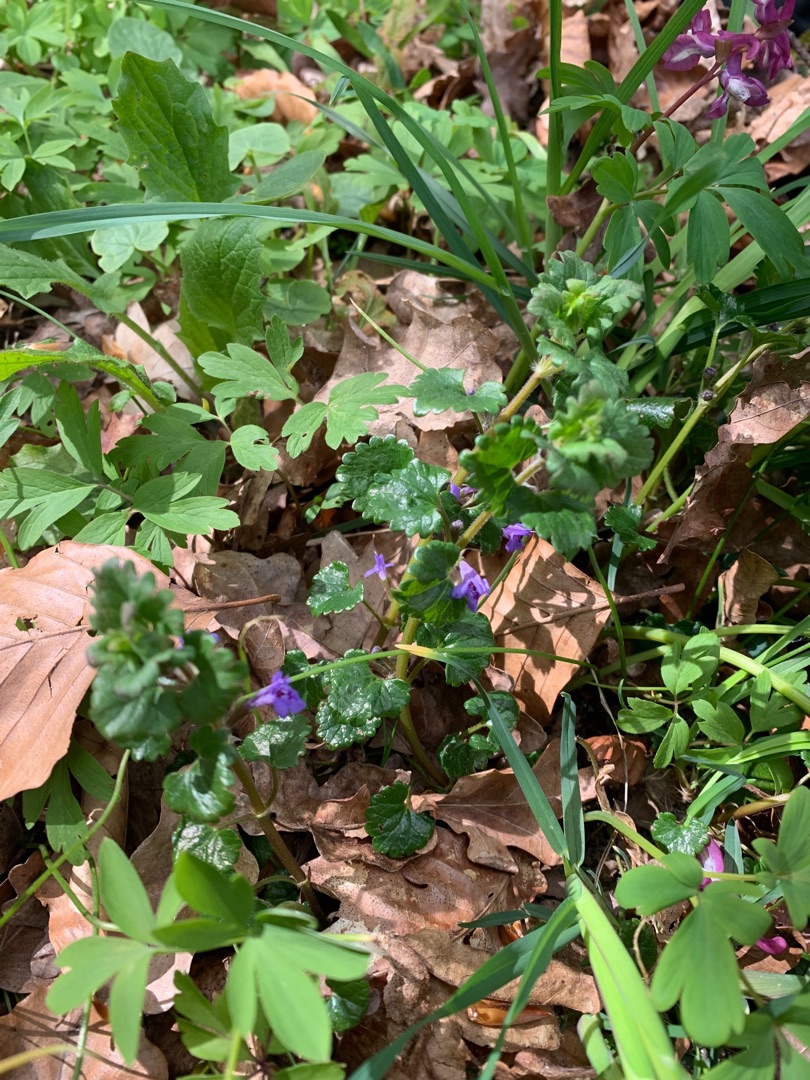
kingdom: Plantae
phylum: Tracheophyta
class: Magnoliopsida
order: Lamiales
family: Lamiaceae
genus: Glechoma
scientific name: Glechoma hederacea
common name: Korsknap
